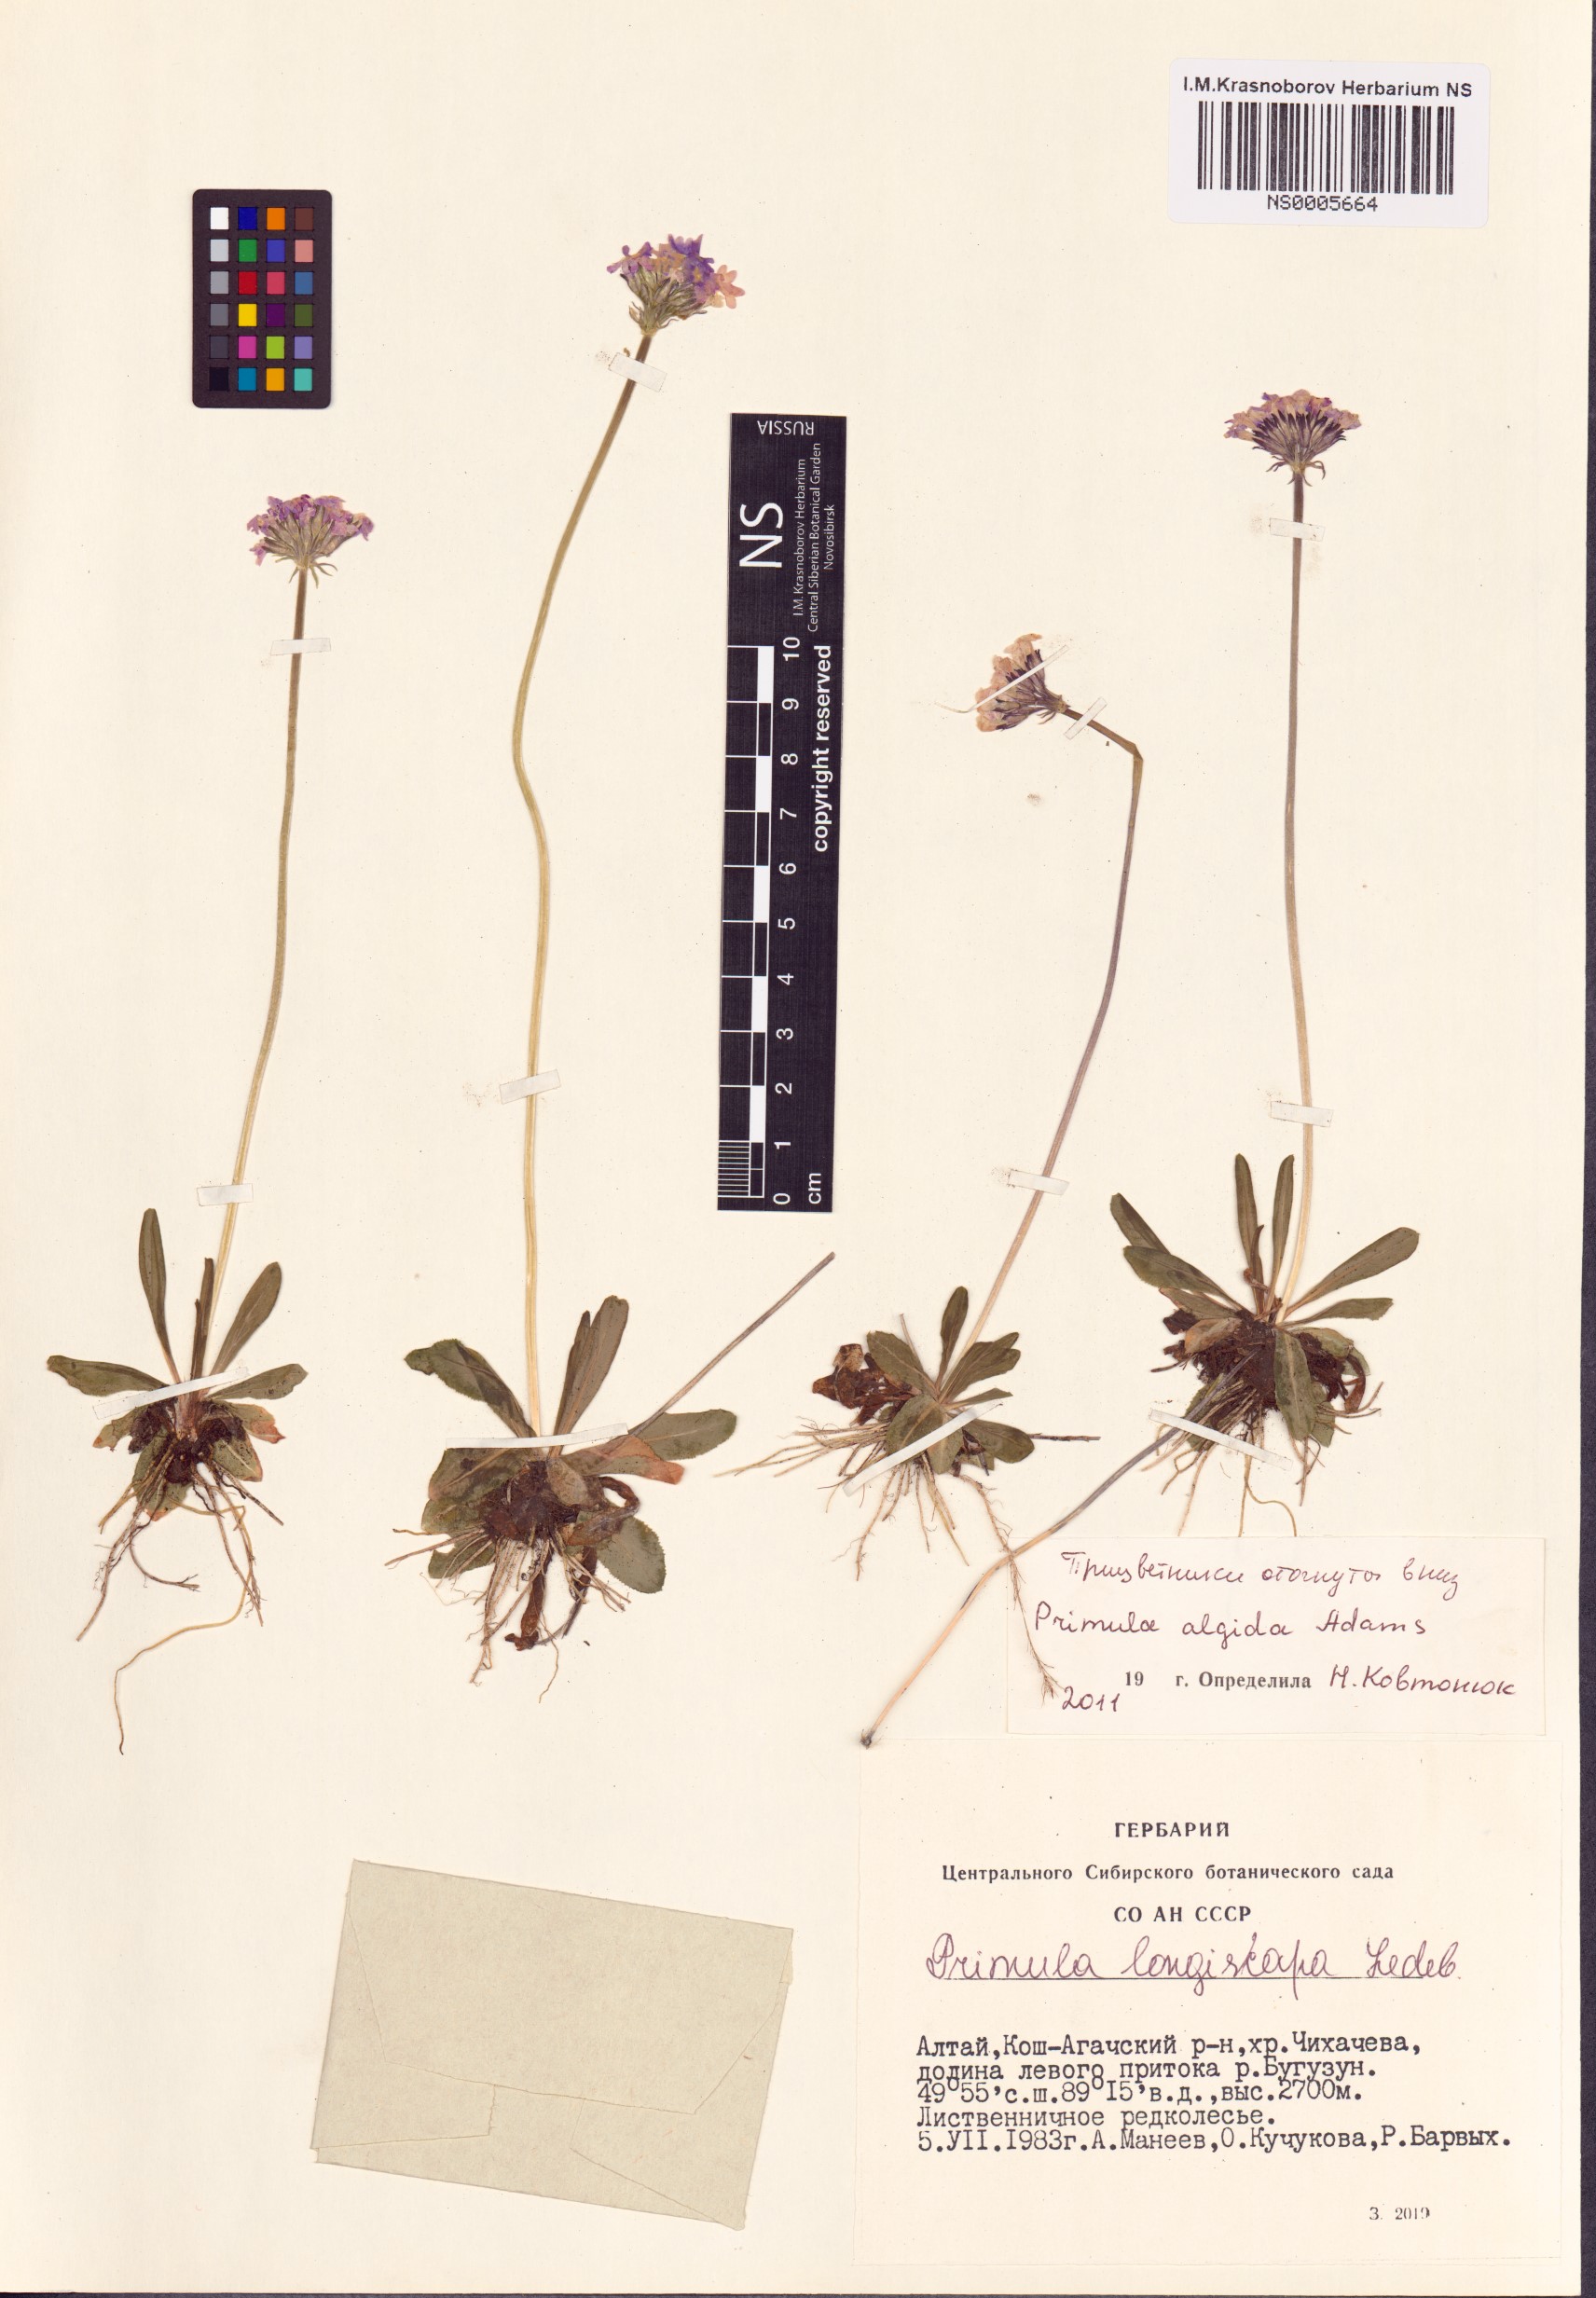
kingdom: Plantae
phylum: Tracheophyta
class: Magnoliopsida
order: Ericales
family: Primulaceae
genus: Primula
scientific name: Primula algida
